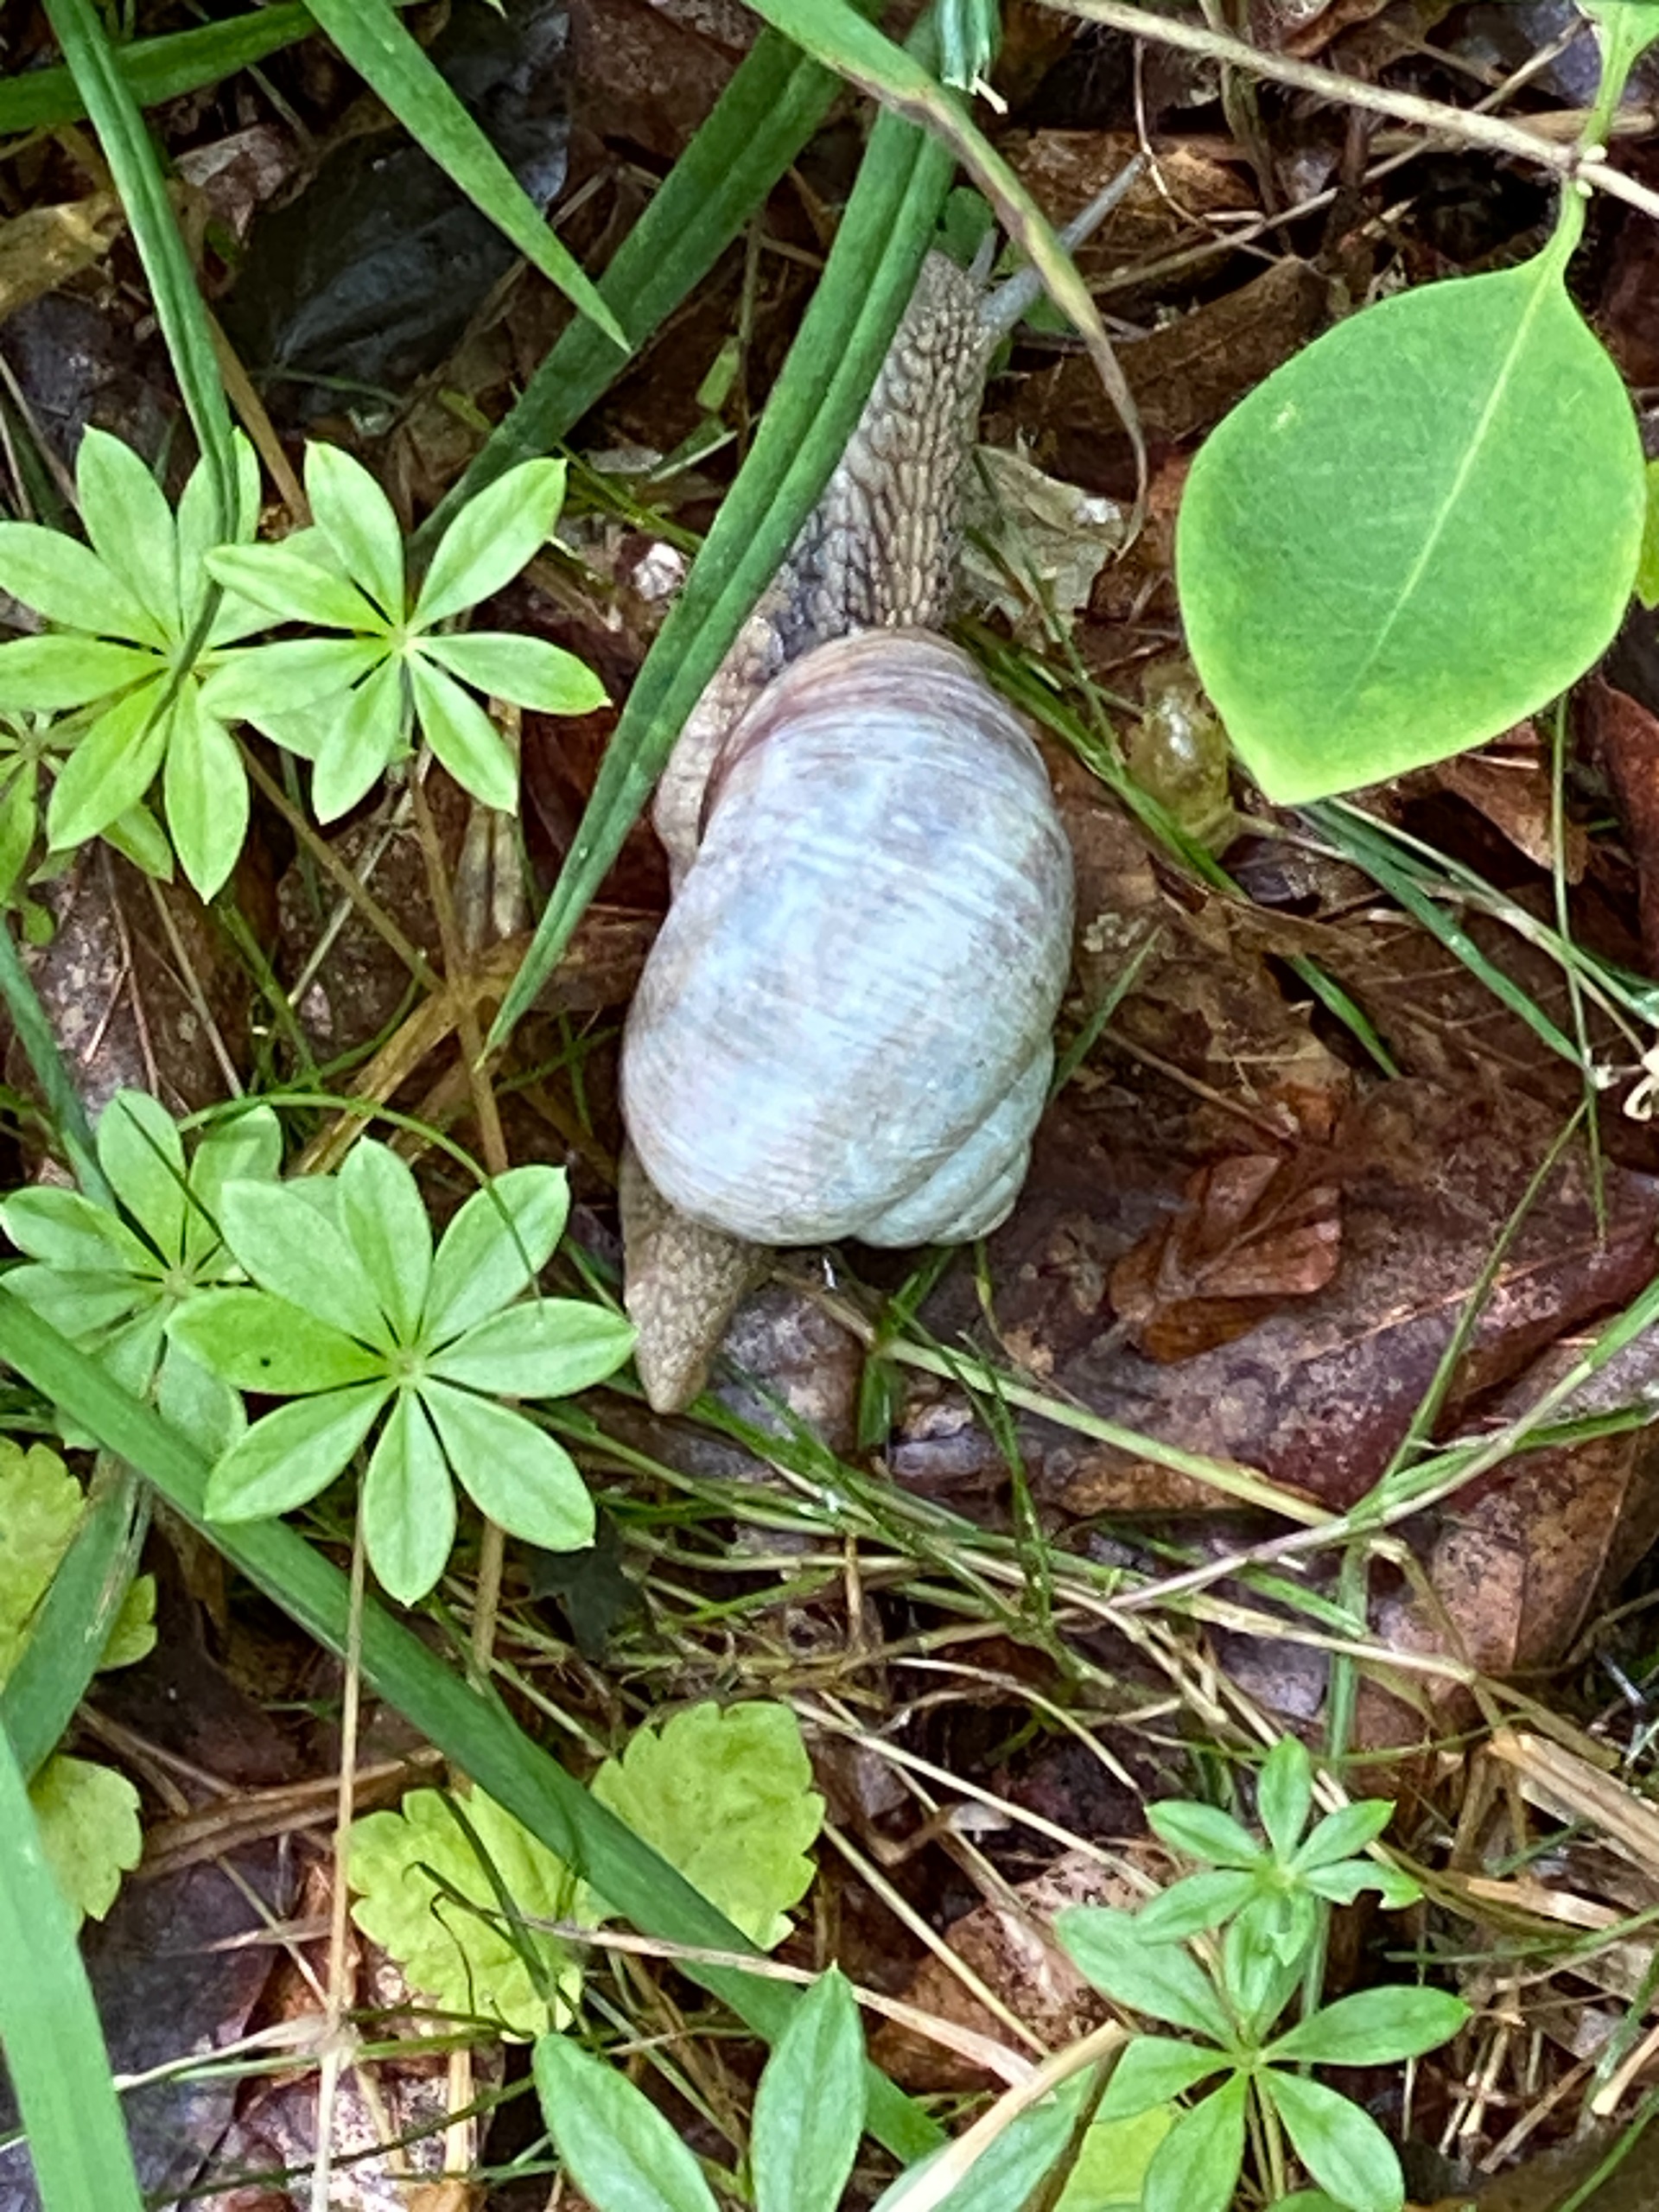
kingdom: Animalia
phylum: Mollusca
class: Gastropoda
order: Stylommatophora
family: Helicidae
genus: Helix
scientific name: Helix pomatia
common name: Vinbjergsnegl
